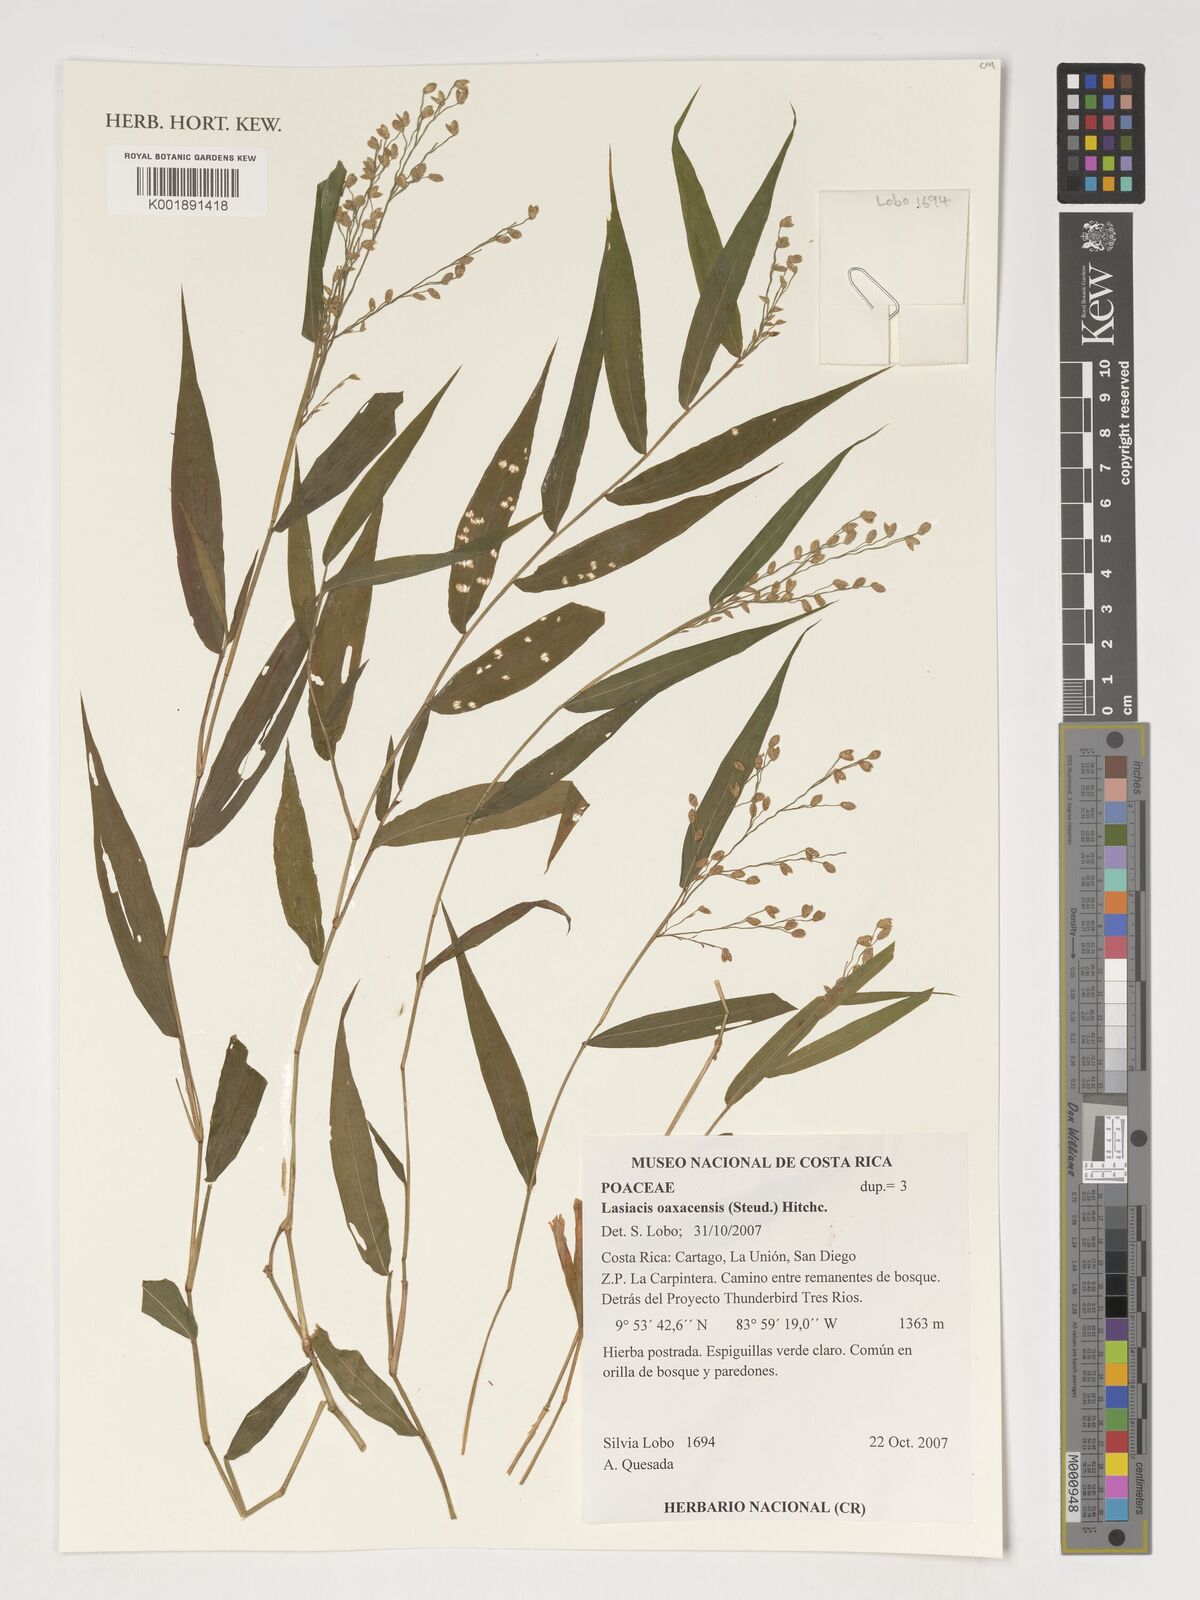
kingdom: Plantae
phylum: Tracheophyta
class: Liliopsida
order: Poales
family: Poaceae
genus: Lasiacis
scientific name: Lasiacis oaxacensis
